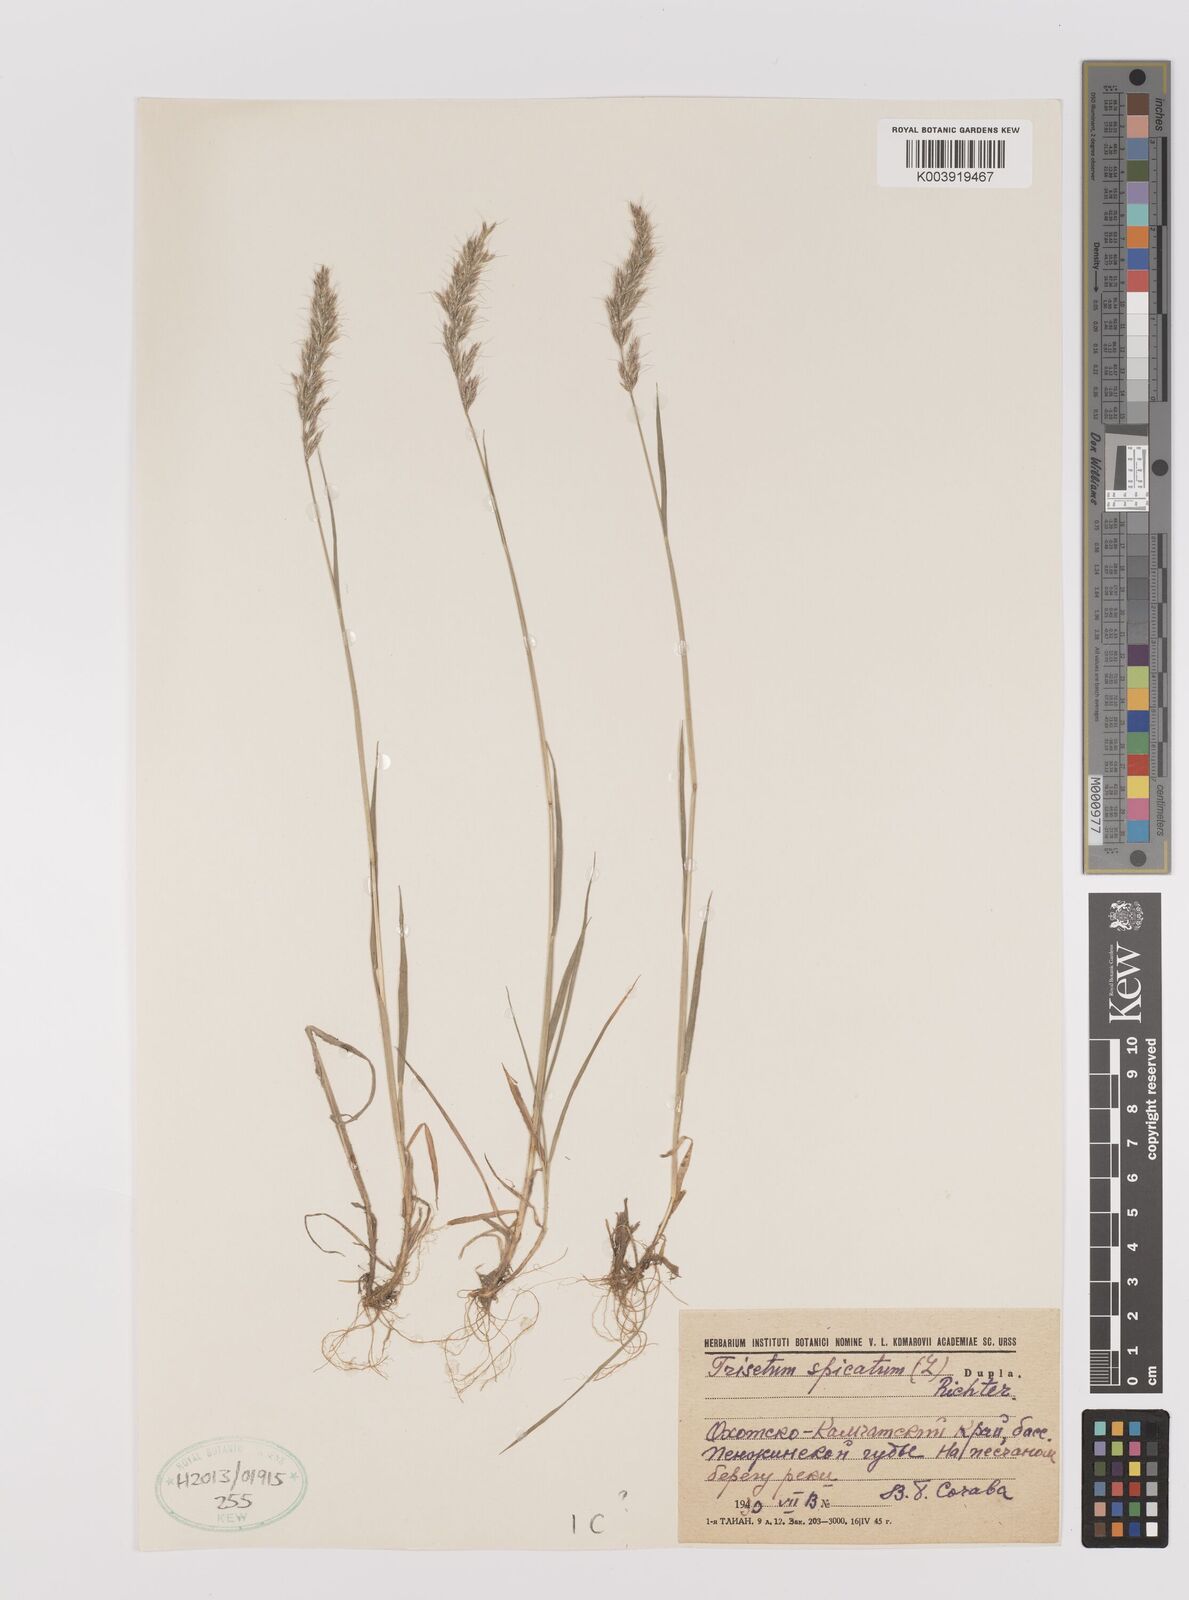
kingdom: Plantae
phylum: Tracheophyta
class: Liliopsida
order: Poales
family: Poaceae
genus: Koeleria
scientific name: Koeleria spicata
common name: Mountain trisetum
